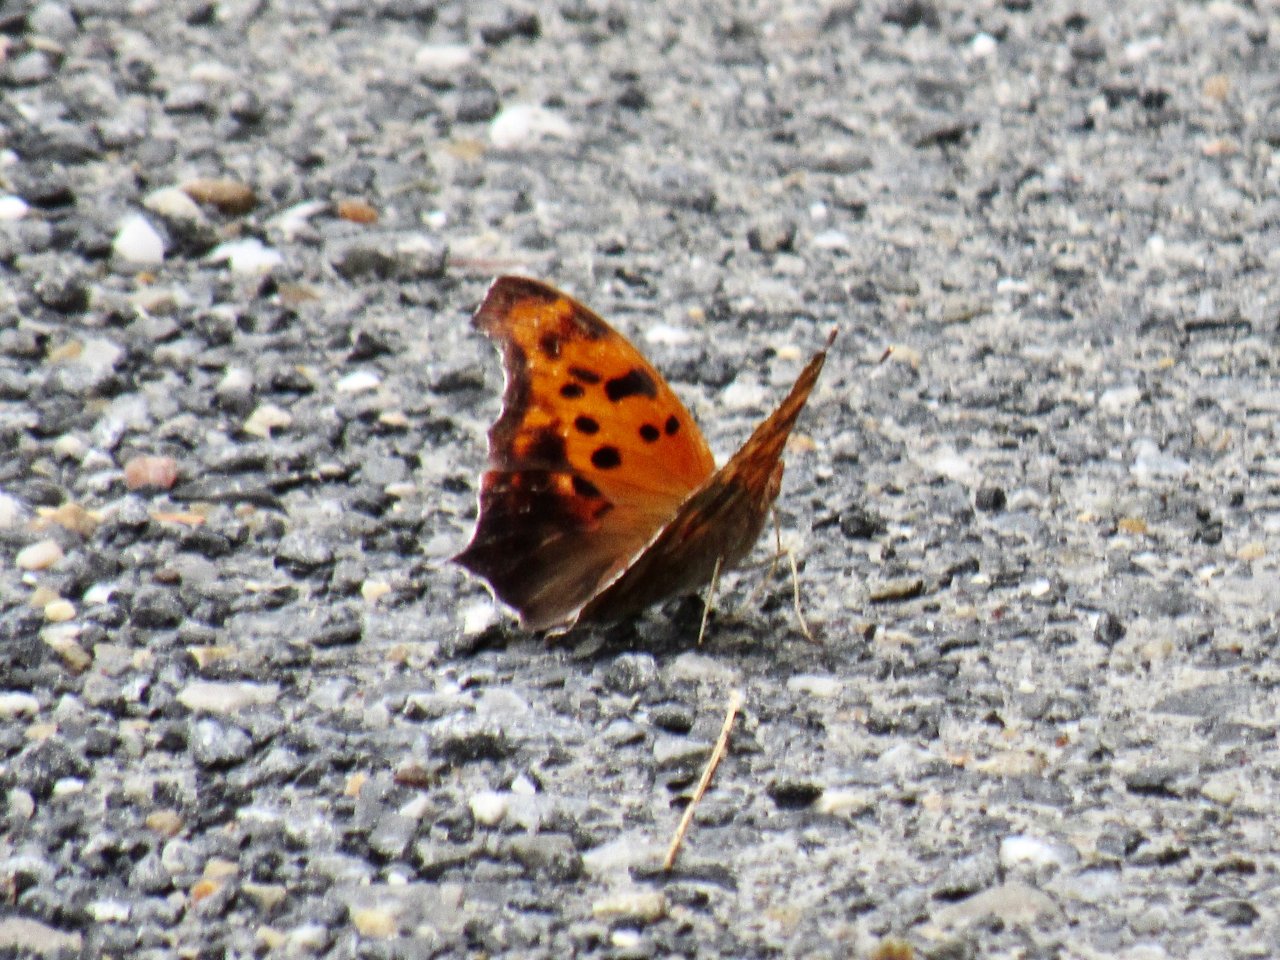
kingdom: Animalia
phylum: Arthropoda
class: Insecta
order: Lepidoptera
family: Nymphalidae
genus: Polygonia
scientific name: Polygonia interrogationis
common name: Question Mark
